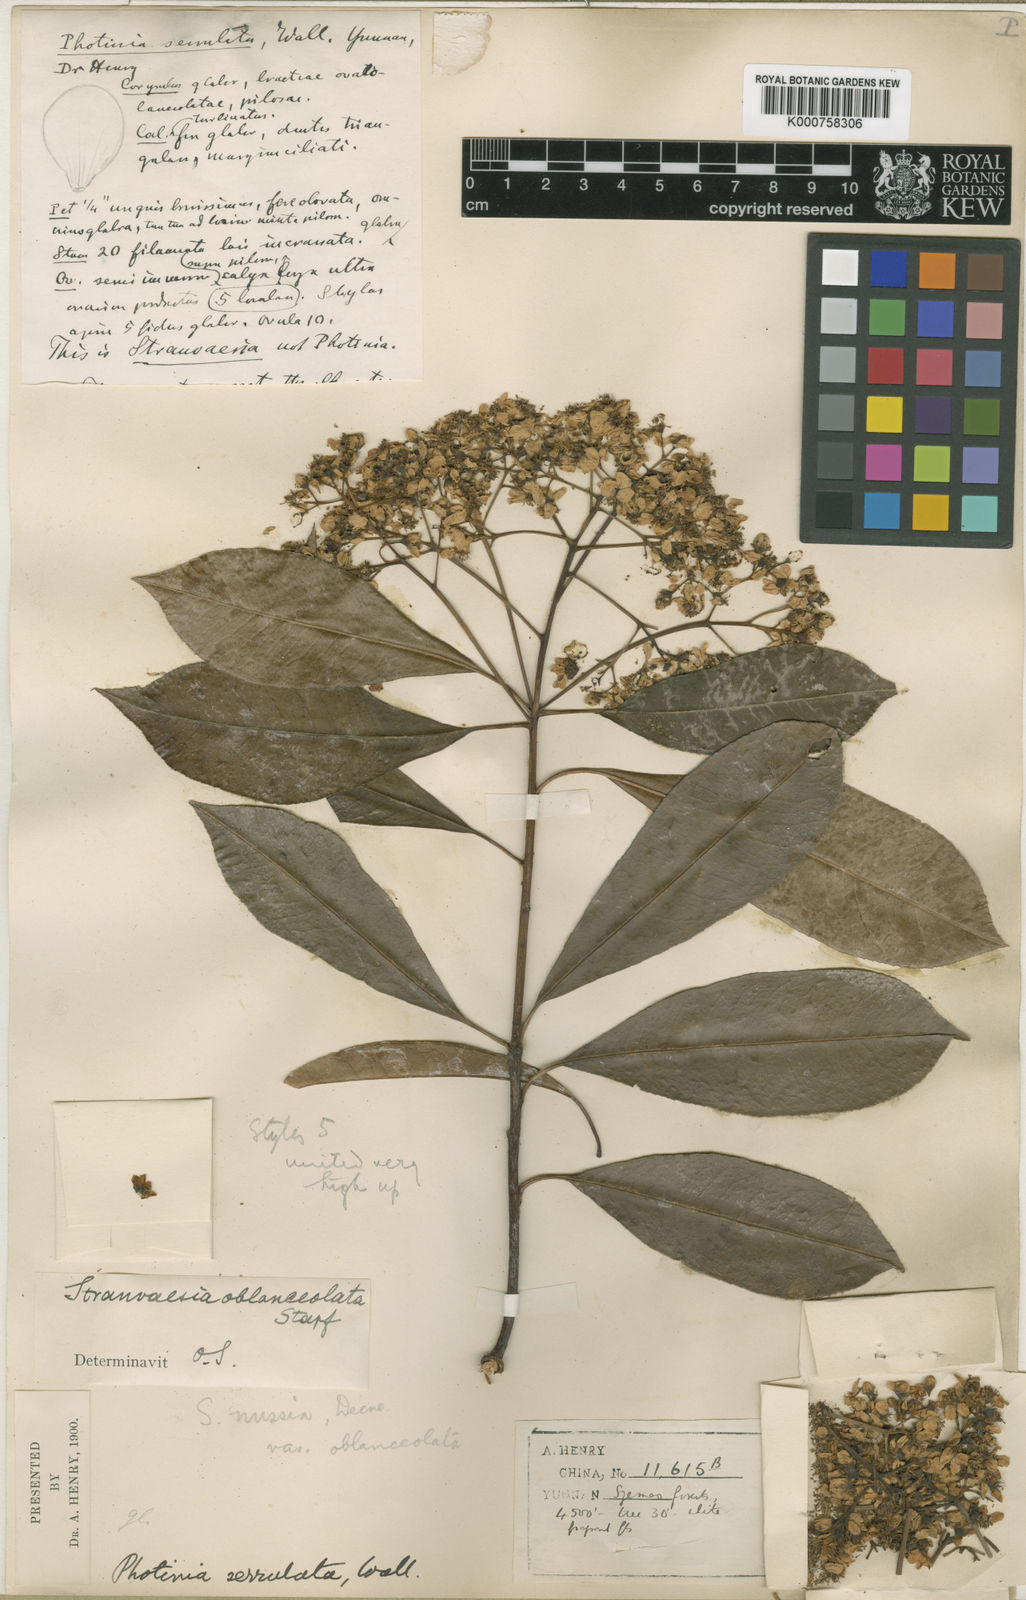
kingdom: Plantae
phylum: Tracheophyta
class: Magnoliopsida
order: Rosales
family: Rosaceae
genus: Photinia
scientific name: Photinia
